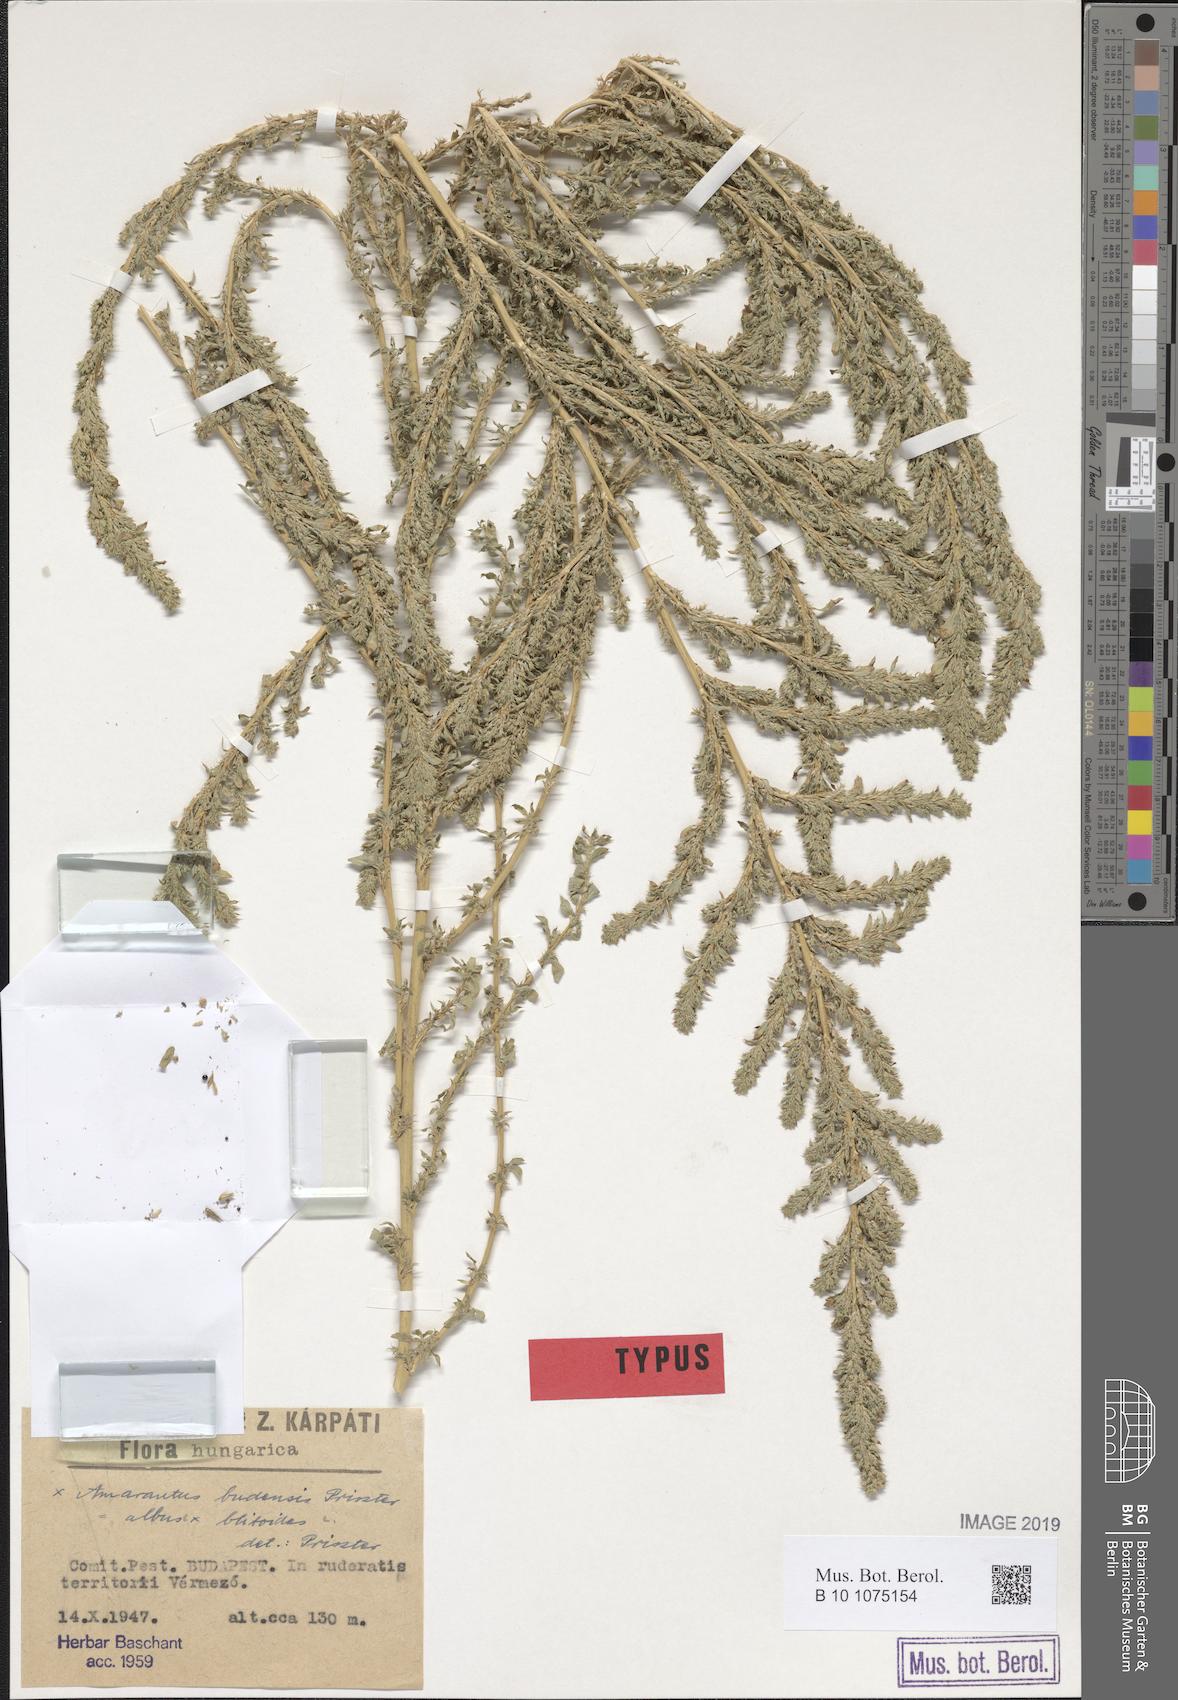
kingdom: Plantae
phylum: Tracheophyta
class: Magnoliopsida
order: Caryophyllales
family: Amaranthaceae
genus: Amaranthus
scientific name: Amaranthus budensis
